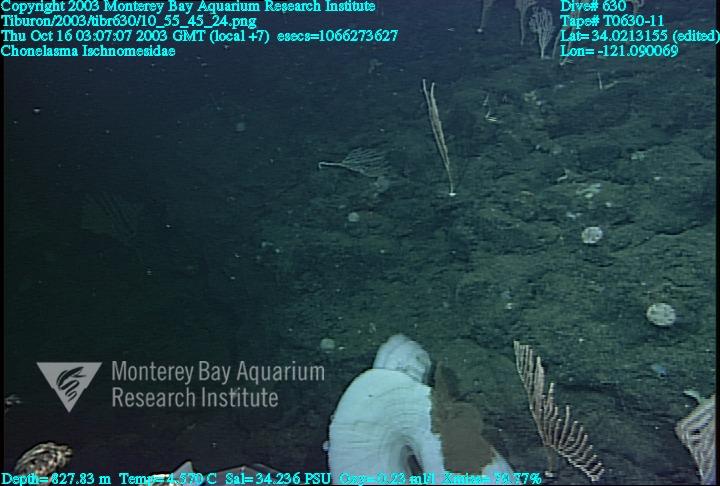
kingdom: Animalia
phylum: Porifera
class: Hexactinellida
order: Sceptrulophora
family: Euretidae
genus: Chonelasma
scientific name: Chonelasma
